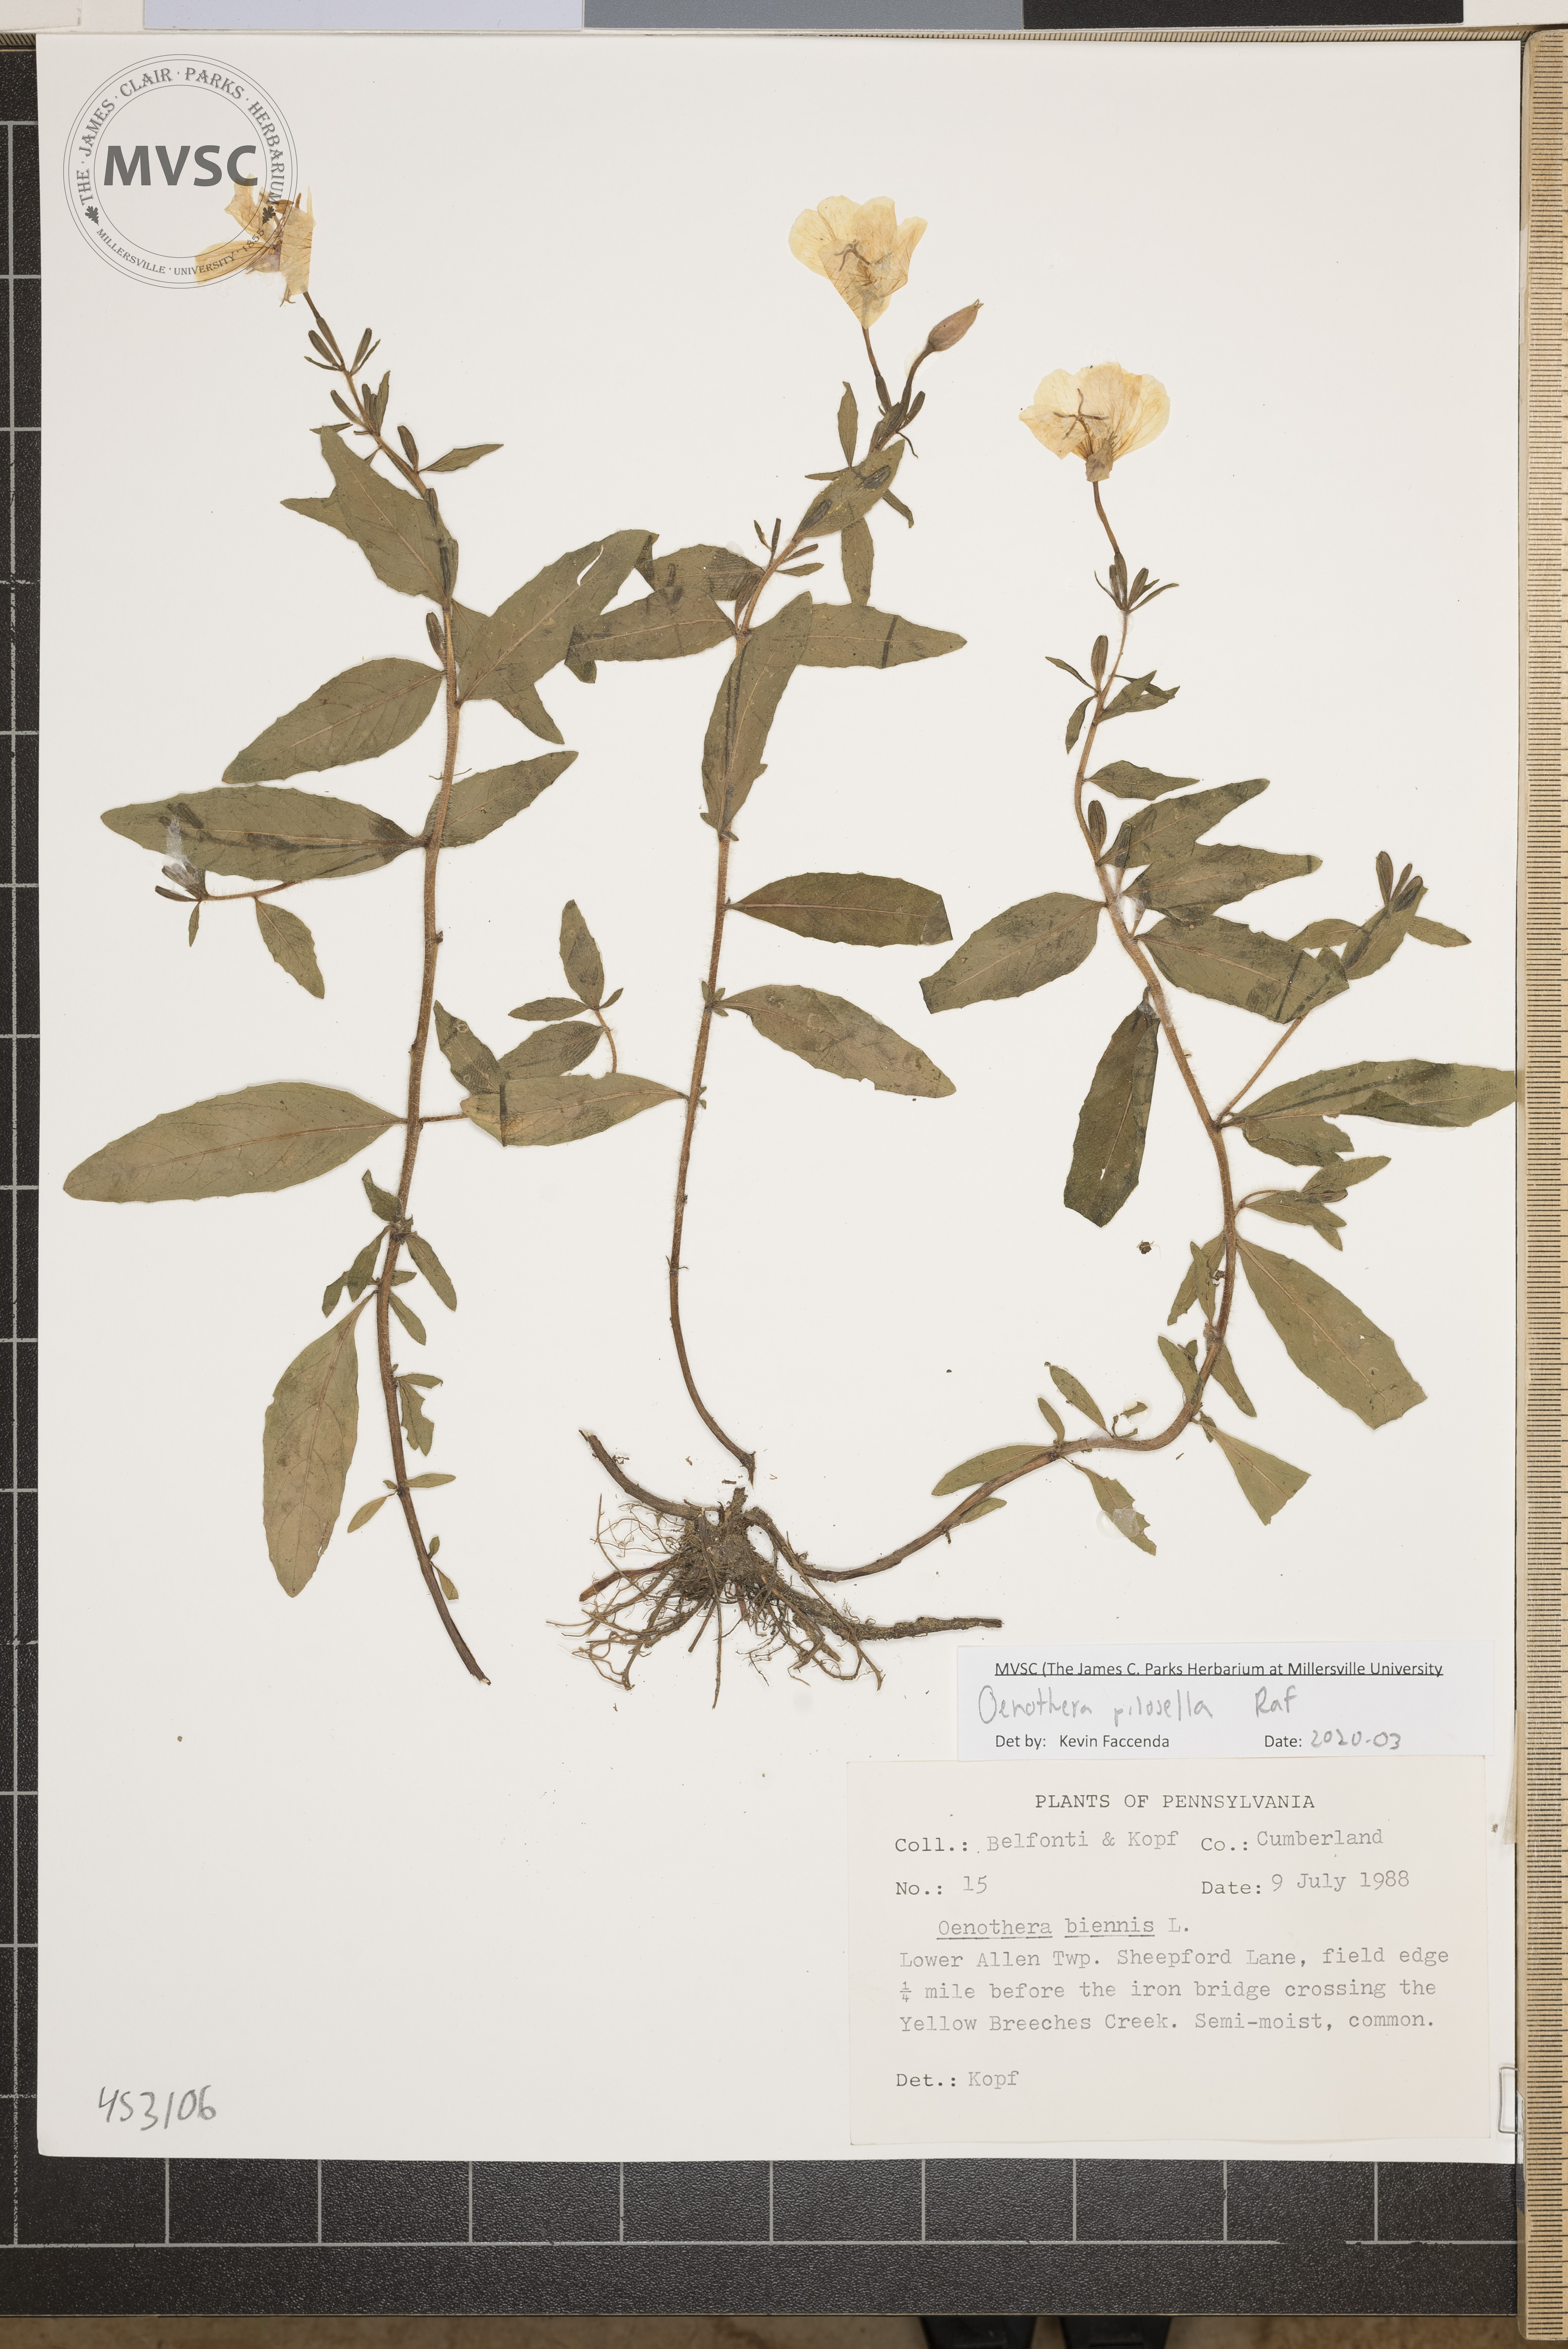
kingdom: Plantae
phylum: Tracheophyta
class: Magnoliopsida
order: Myrtales
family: Onagraceae
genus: Oenothera
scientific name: Oenothera pilosella
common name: Finely-pilose evening-primrose
